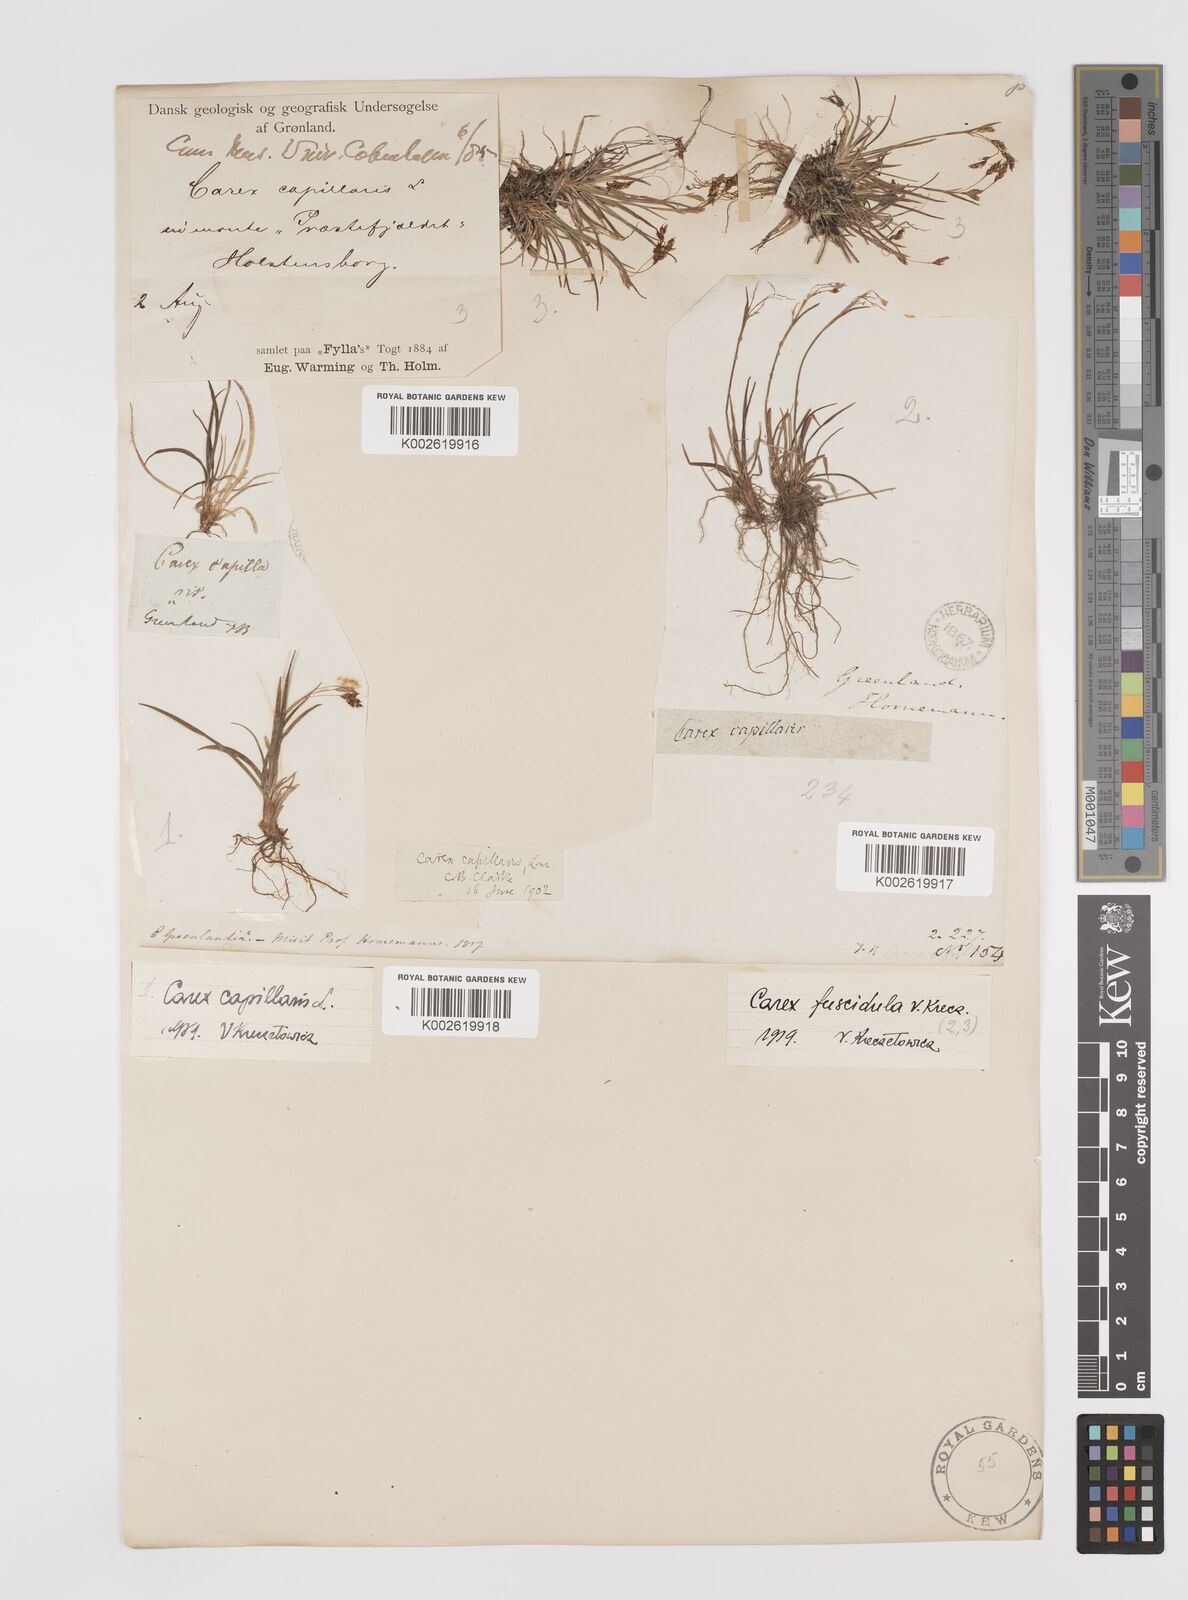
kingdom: Plantae
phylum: Tracheophyta
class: Liliopsida
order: Poales
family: Cyperaceae
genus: Carex
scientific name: Carex capillaris
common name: Hair sedge
